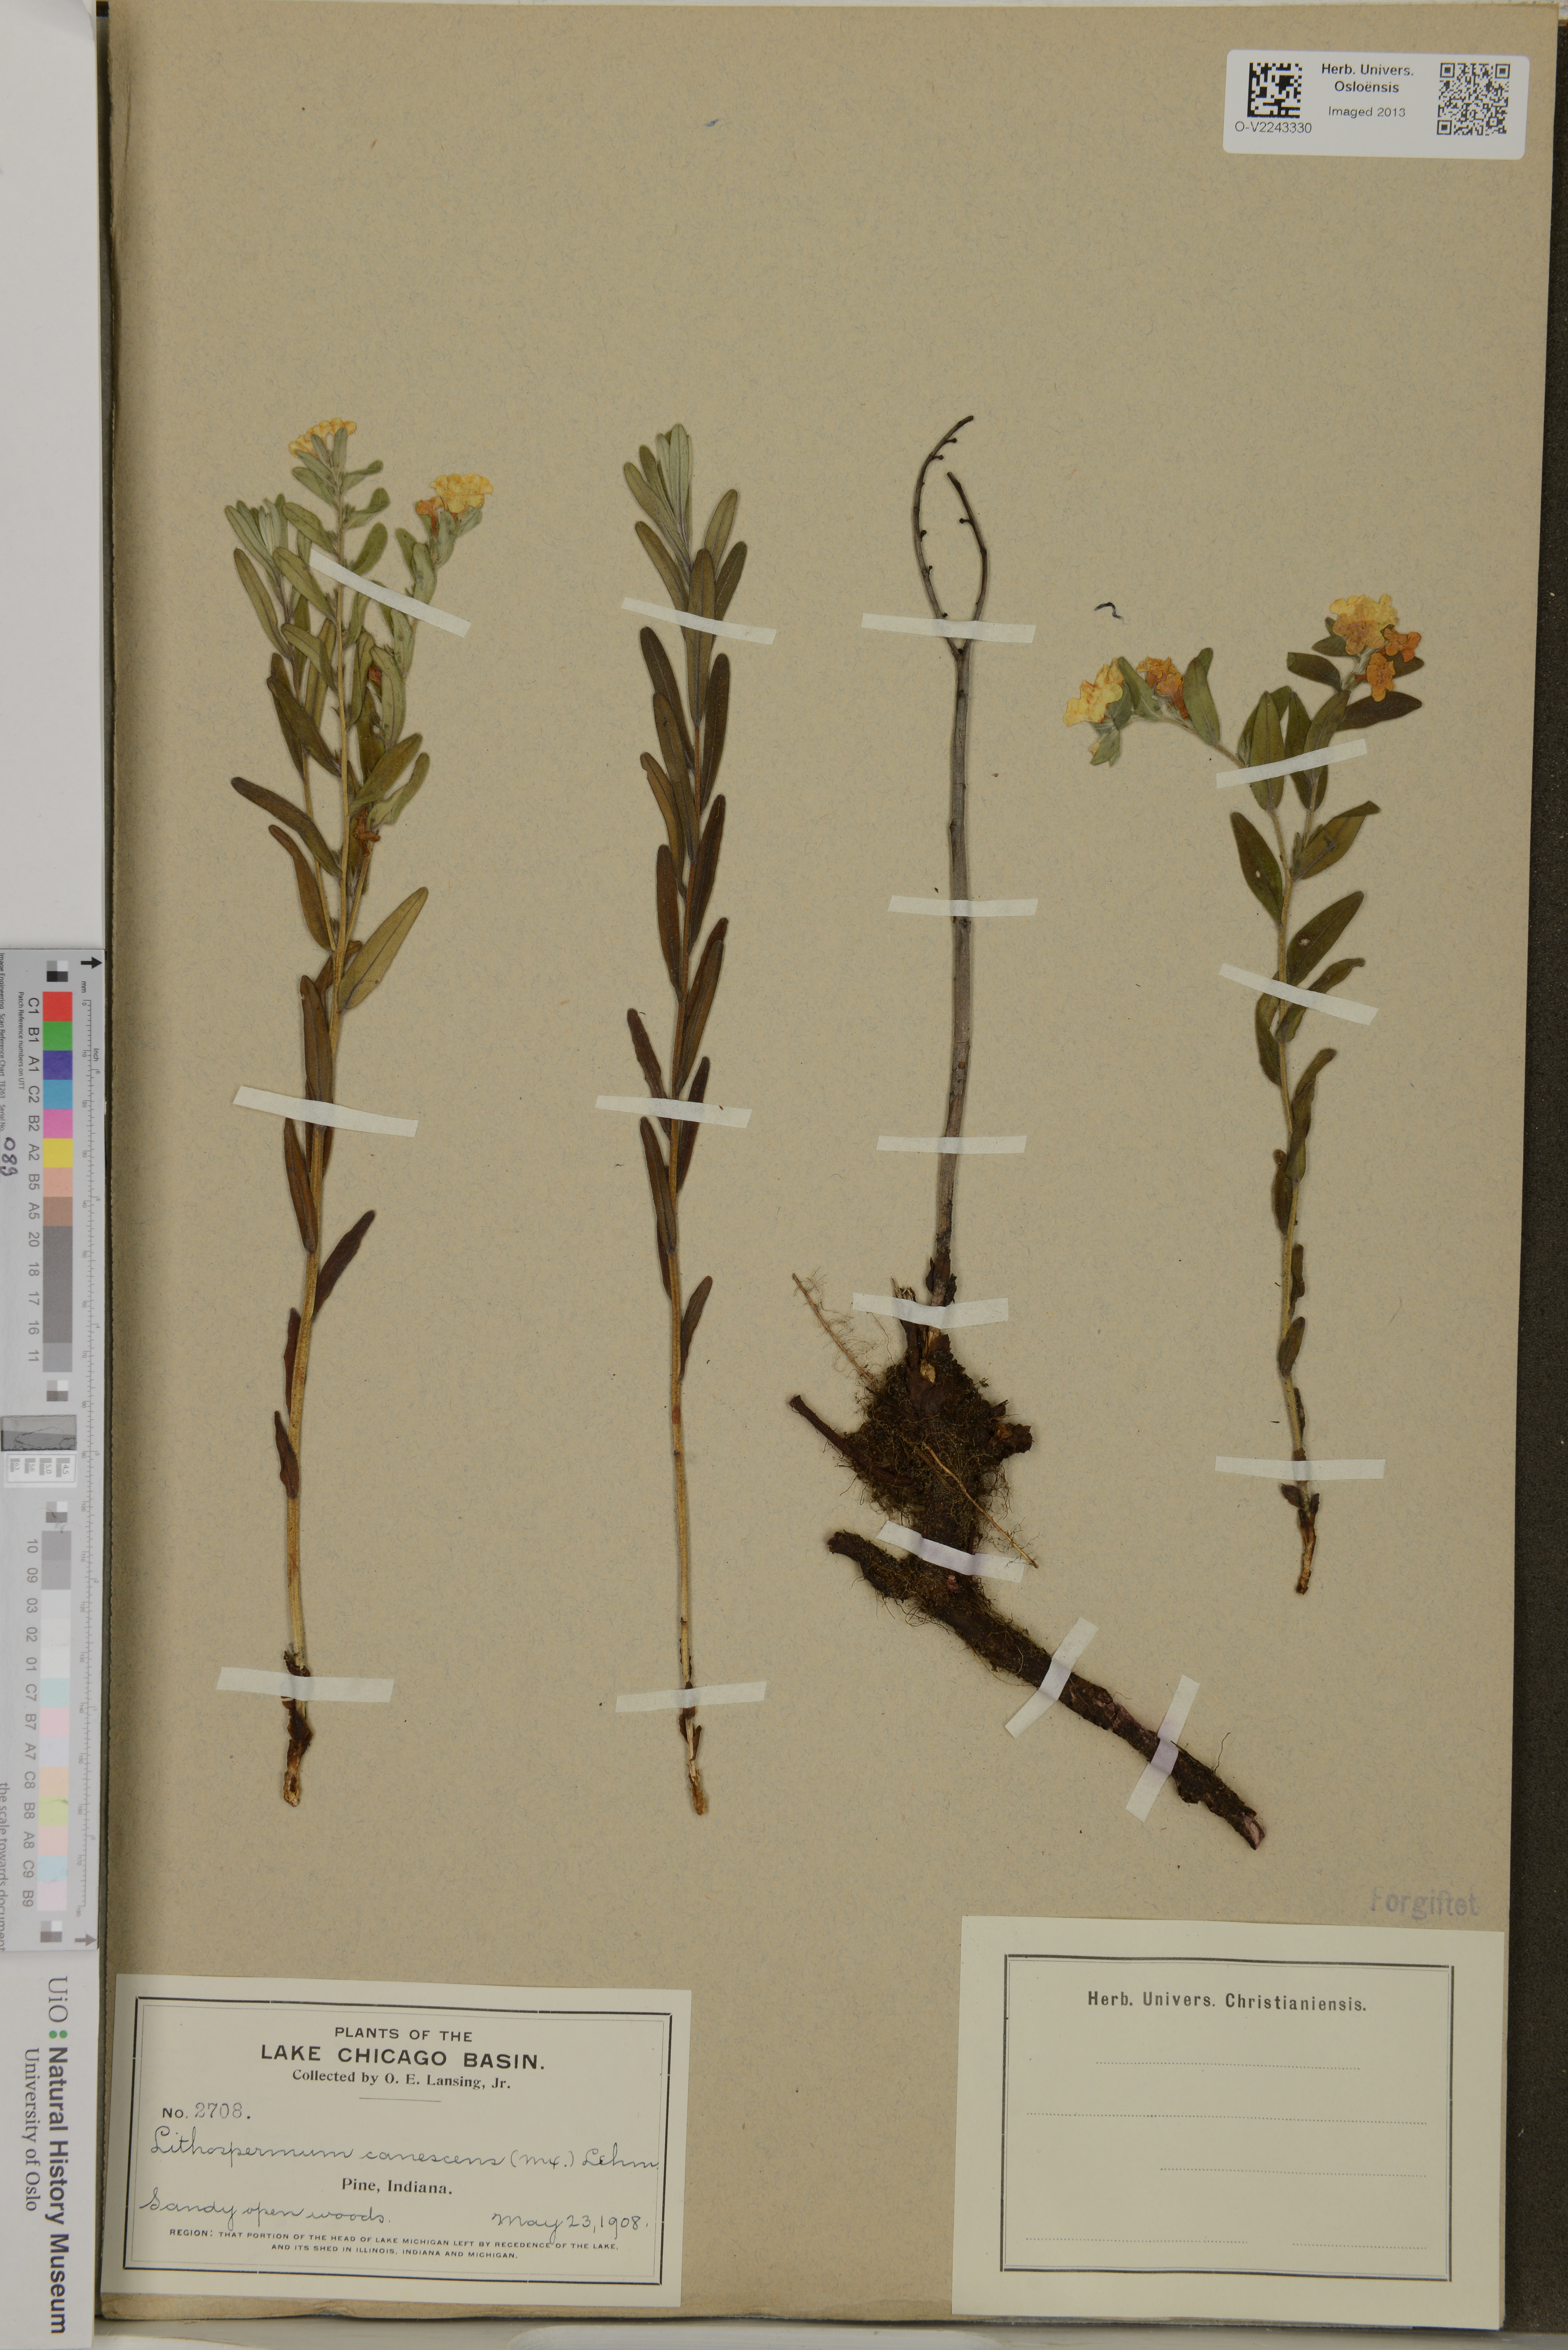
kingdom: Plantae
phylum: Tracheophyta
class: Magnoliopsida
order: Boraginales
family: Boraginaceae
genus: Lithospermum
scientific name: Lithospermum canescens
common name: Hoary puccoon
